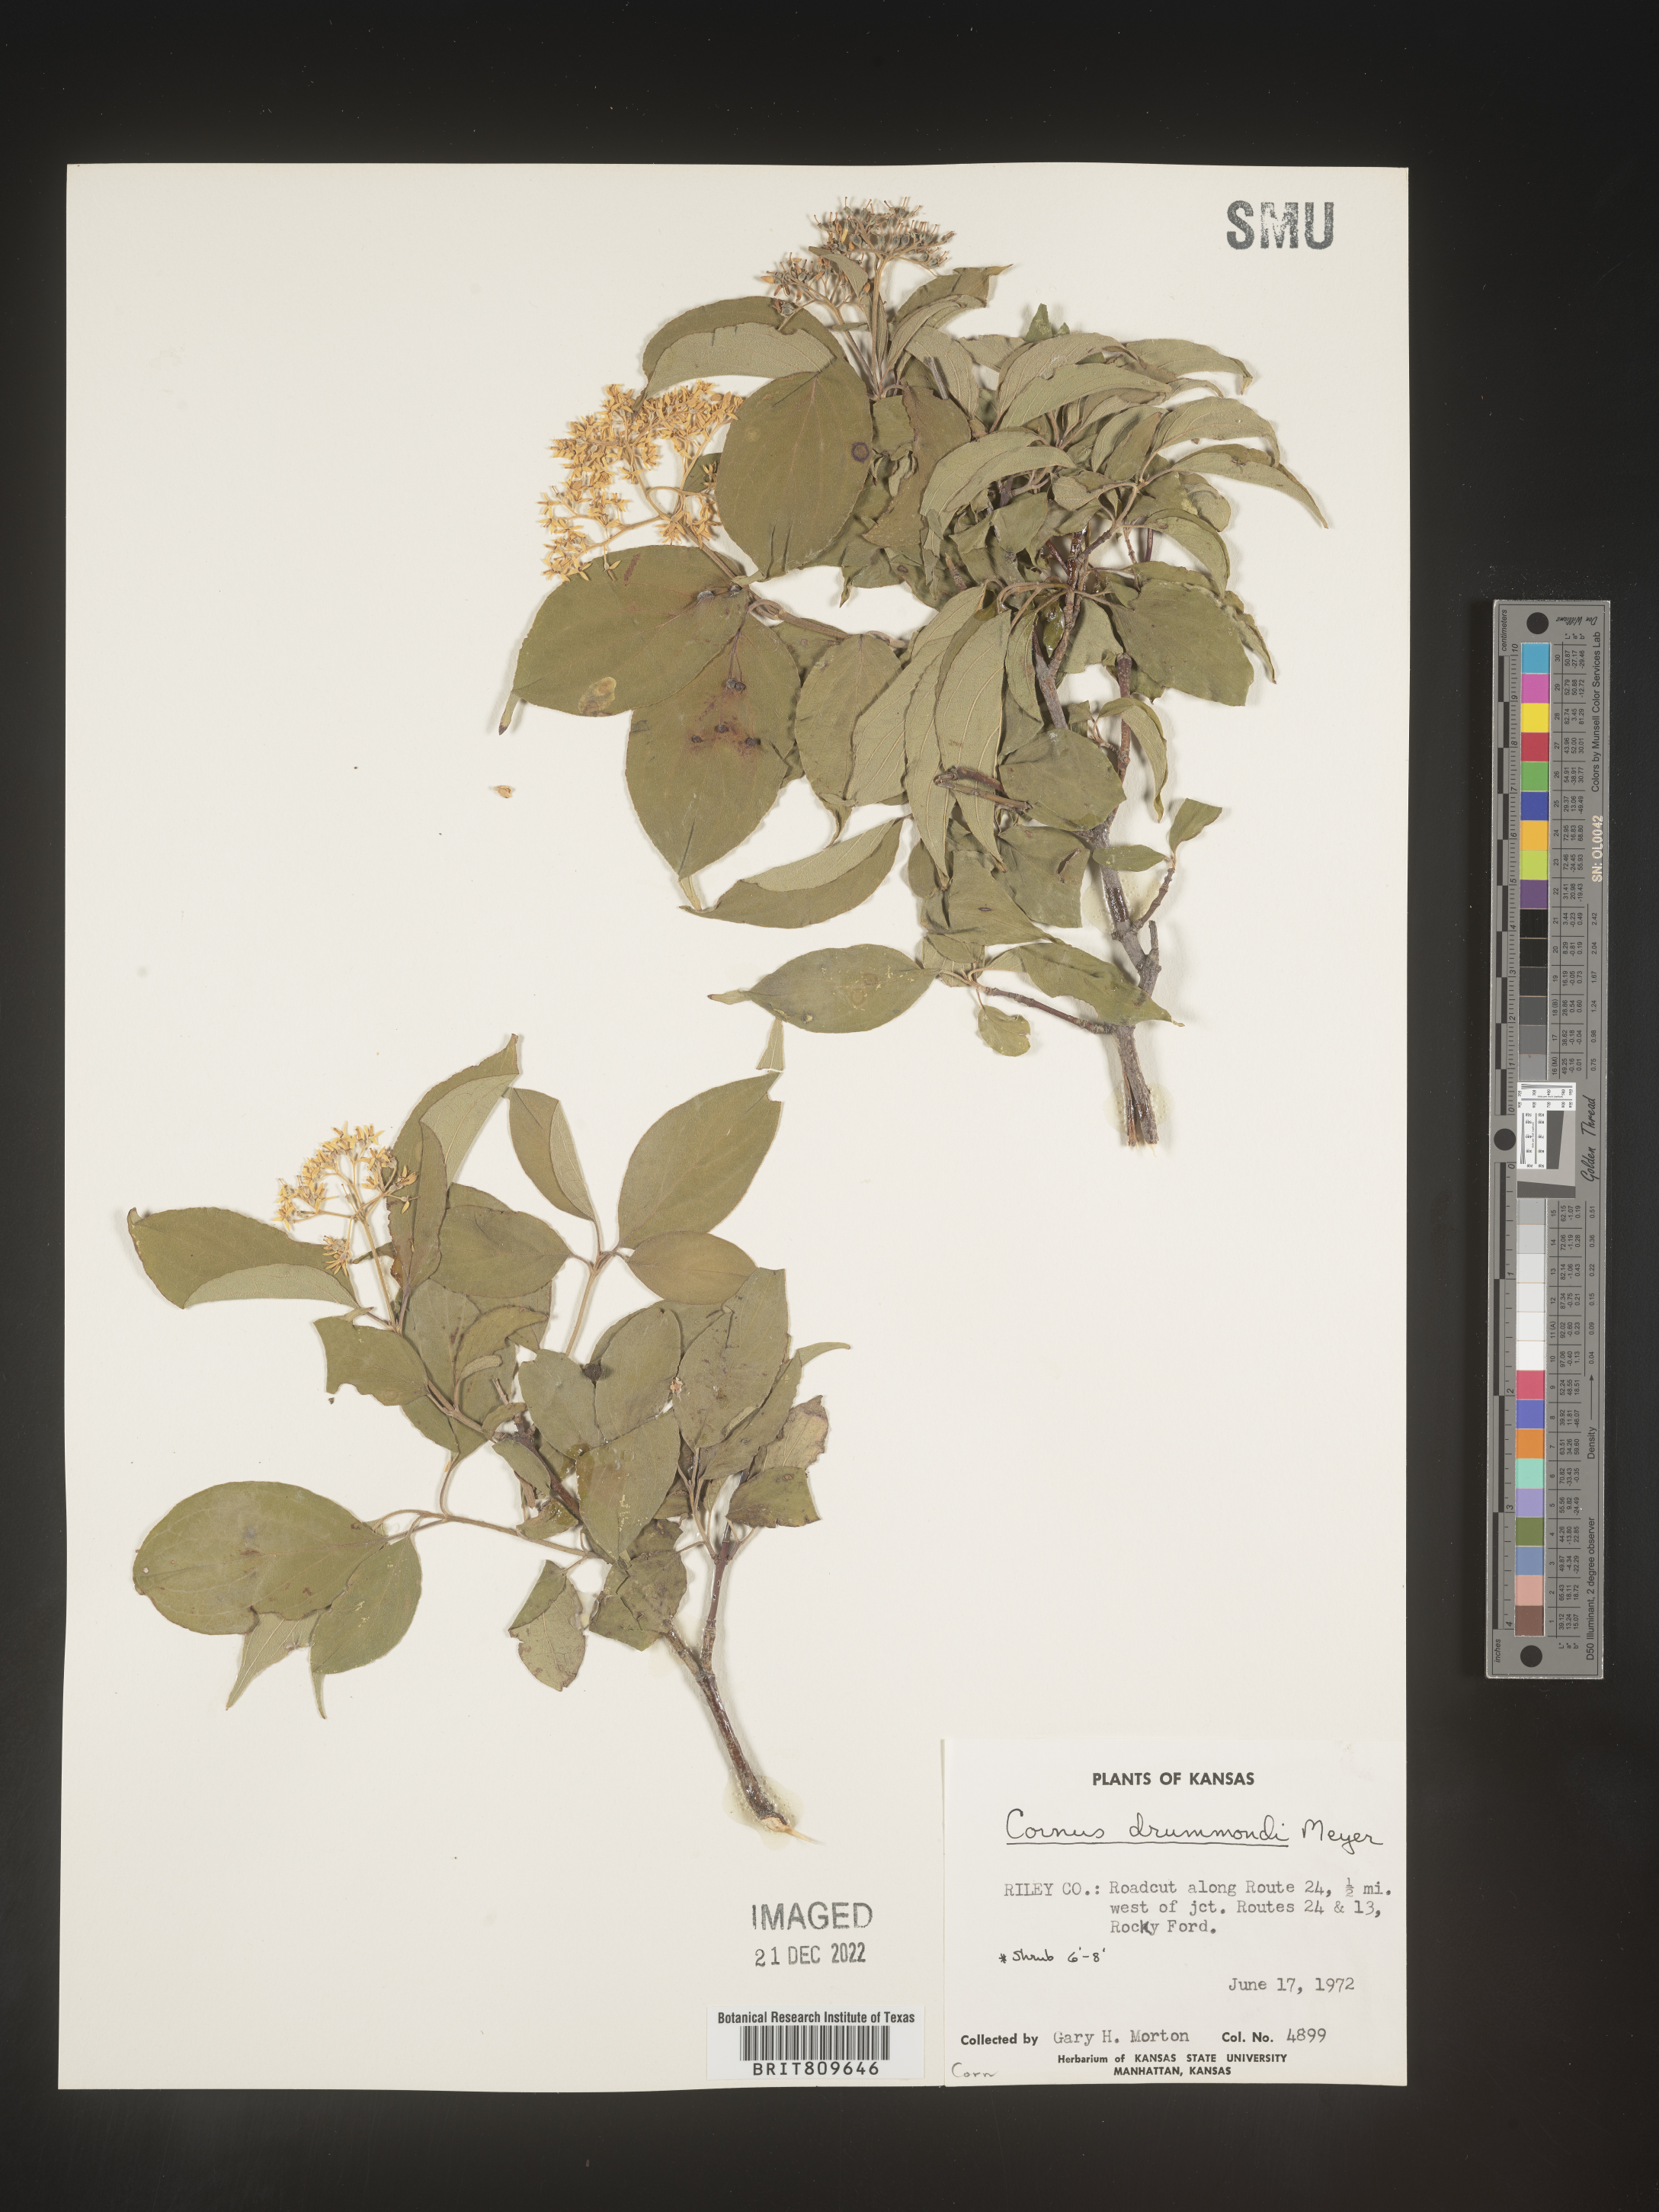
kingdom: Plantae
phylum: Tracheophyta
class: Magnoliopsida
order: Cornales
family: Cornaceae
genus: Cornus
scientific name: Cornus drummondii
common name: Rough-leaf dogwood
